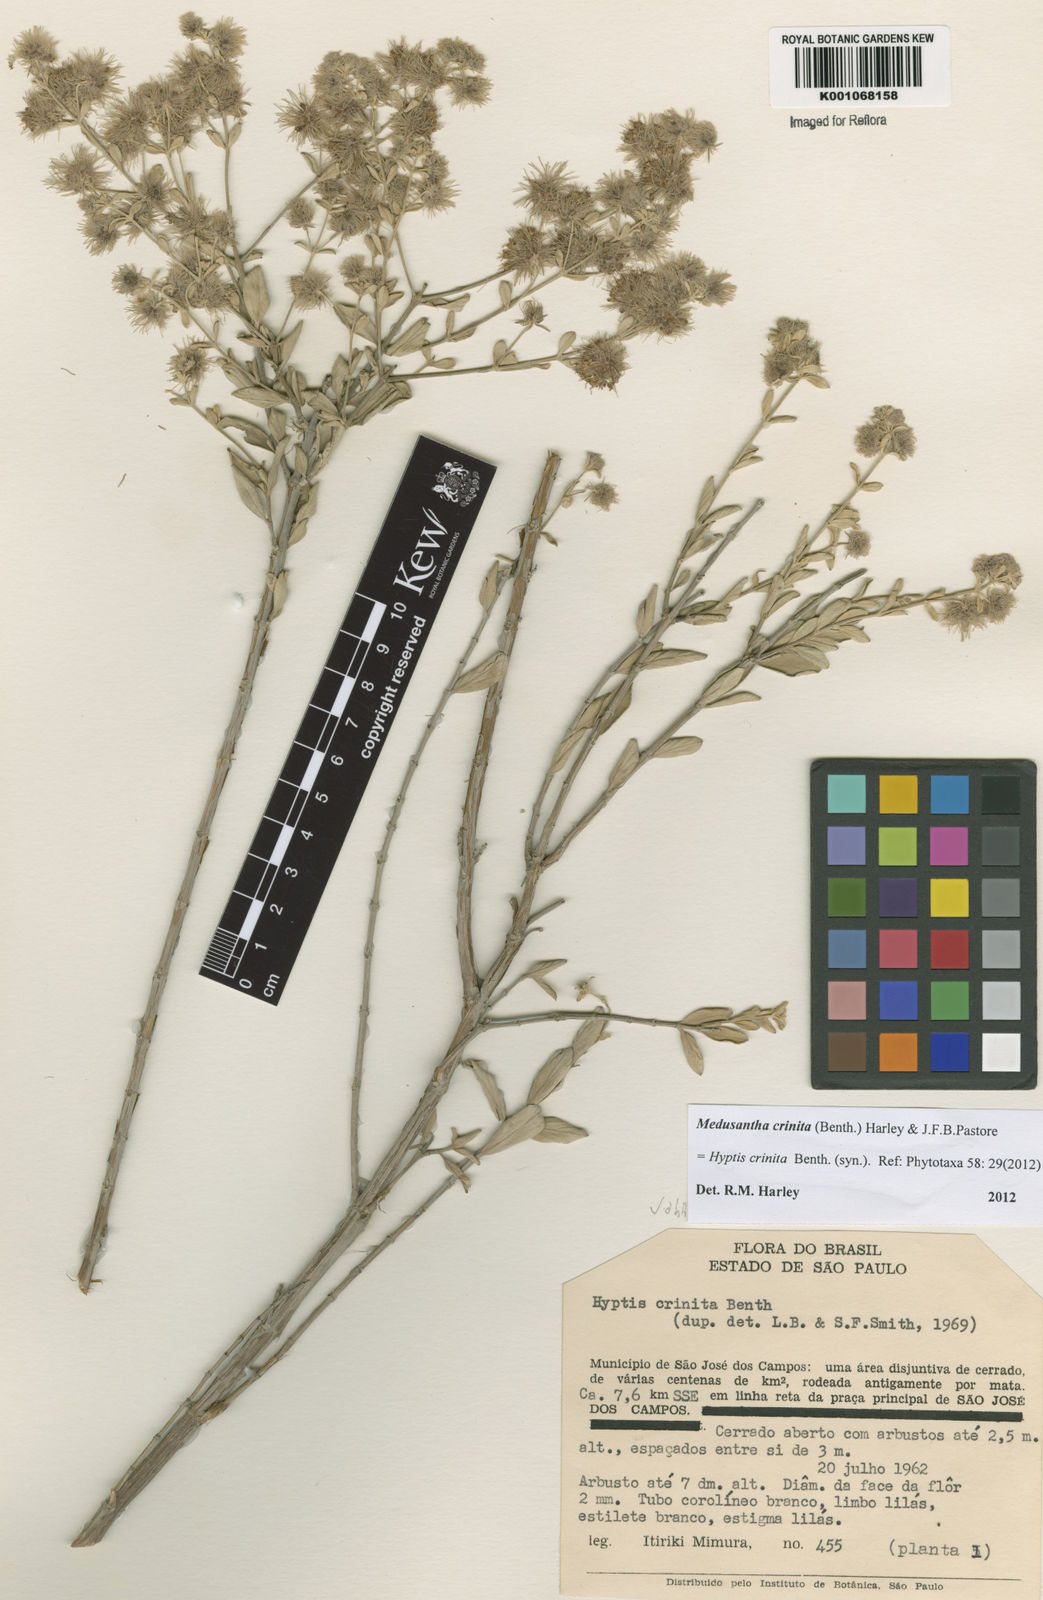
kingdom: Plantae
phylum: Tracheophyta
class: Magnoliopsida
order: Lamiales
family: Lamiaceae
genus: Medusantha
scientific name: Medusantha crinita
